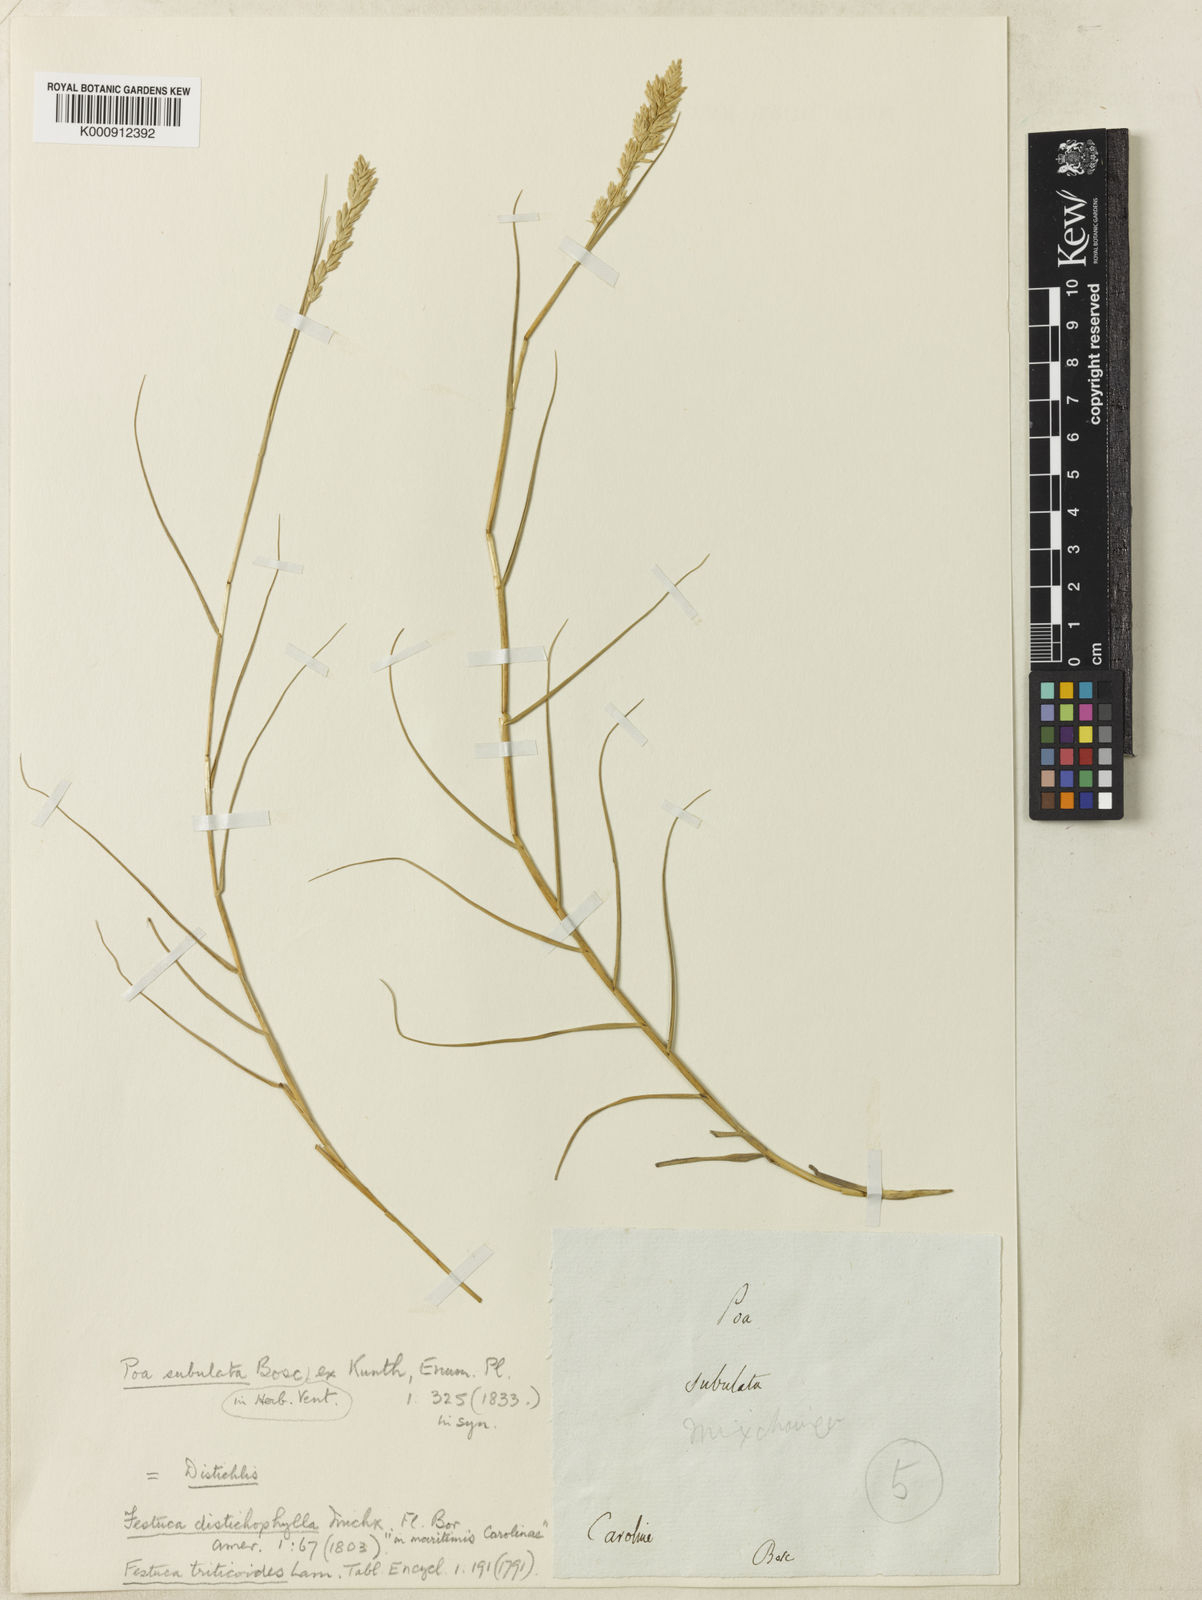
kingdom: Plantae
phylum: Tracheophyta
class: Liliopsida
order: Poales
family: Poaceae
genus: Distichlis
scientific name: Distichlis spicata
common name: Saltgrass
